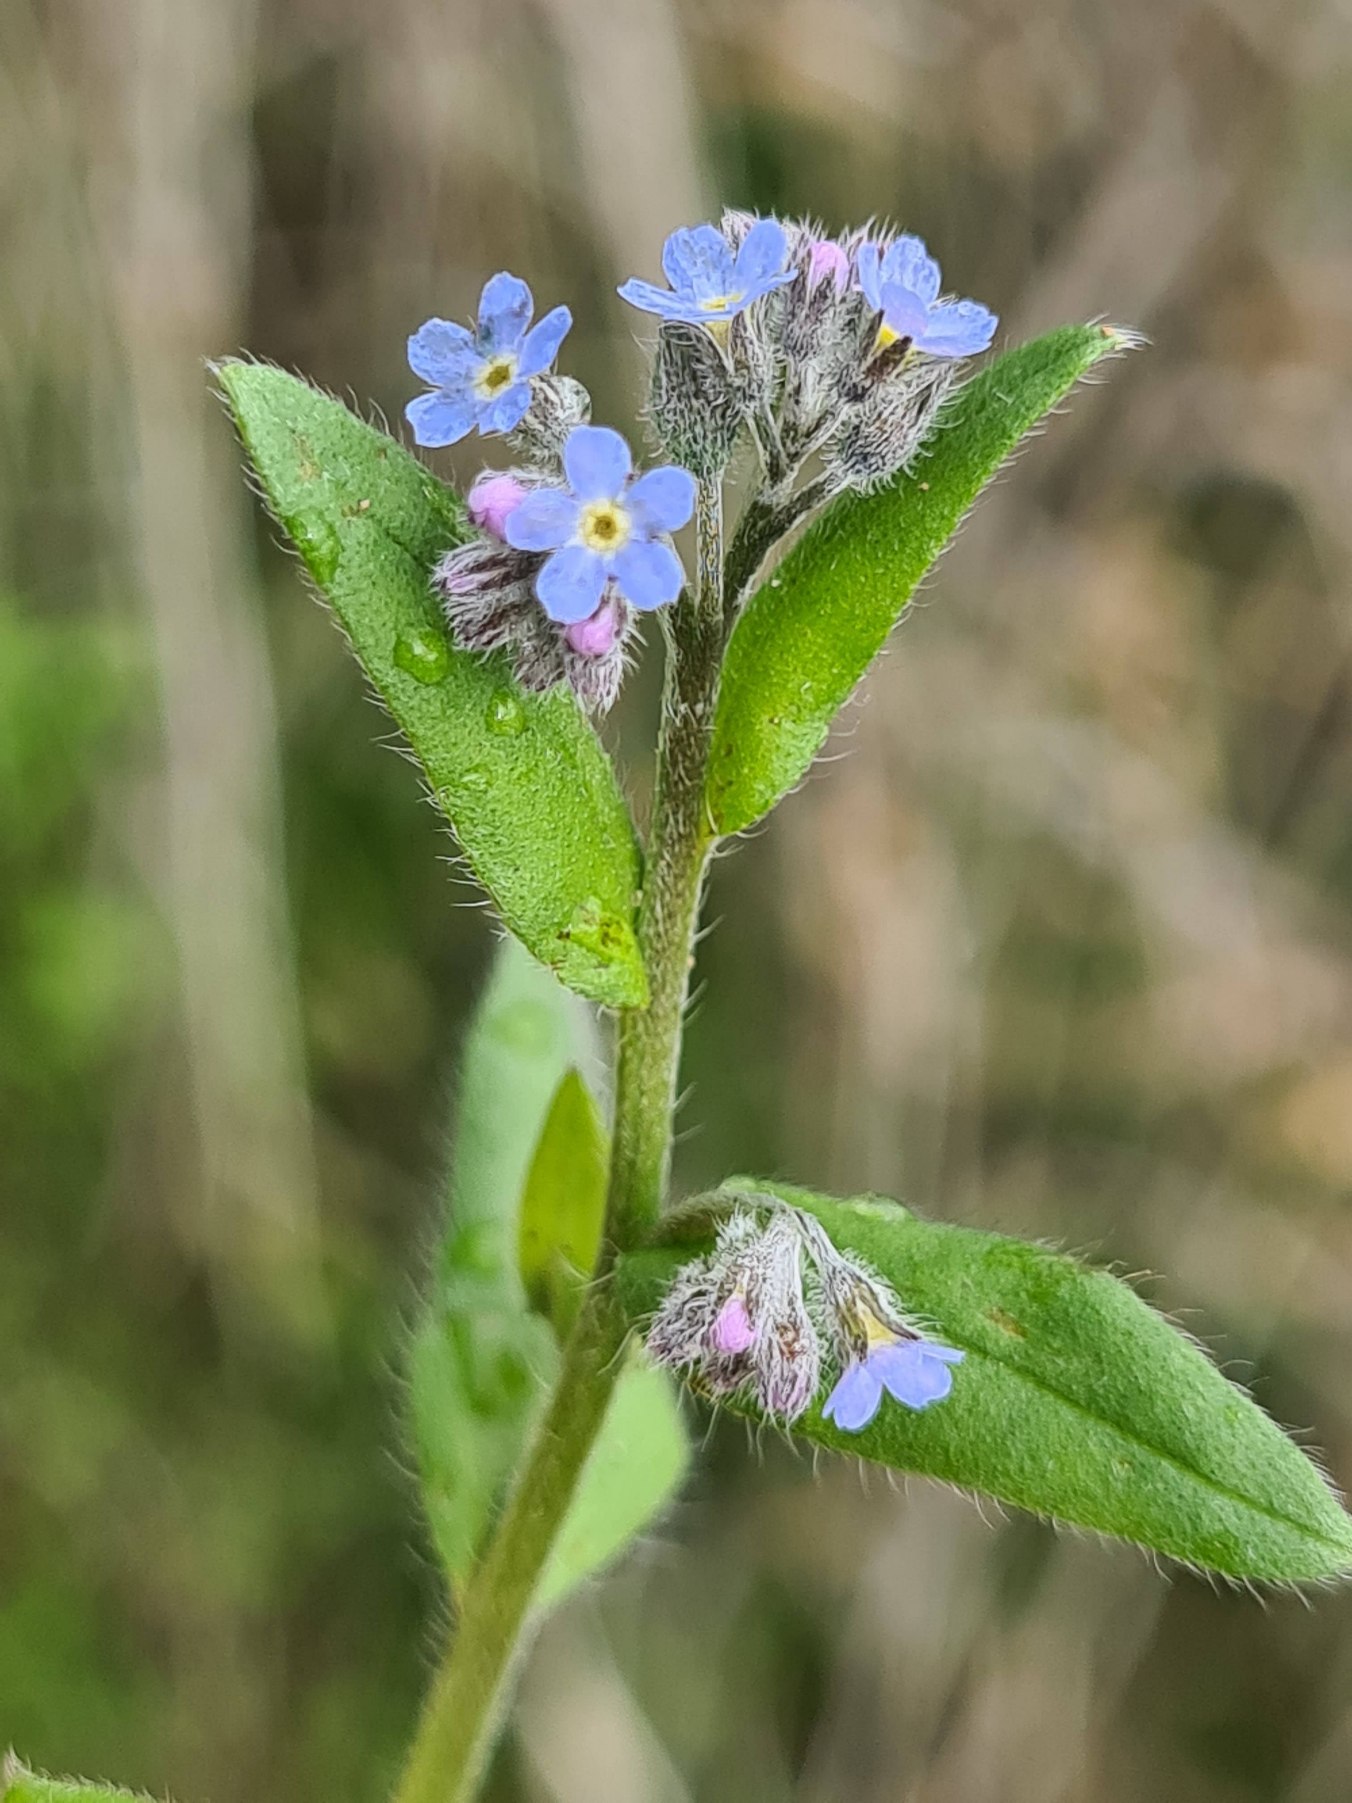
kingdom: Plantae
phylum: Tracheophyta
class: Magnoliopsida
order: Boraginales
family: Boraginaceae
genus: Myosotis
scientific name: Myosotis arvensis
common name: Mark-forglemmigej
